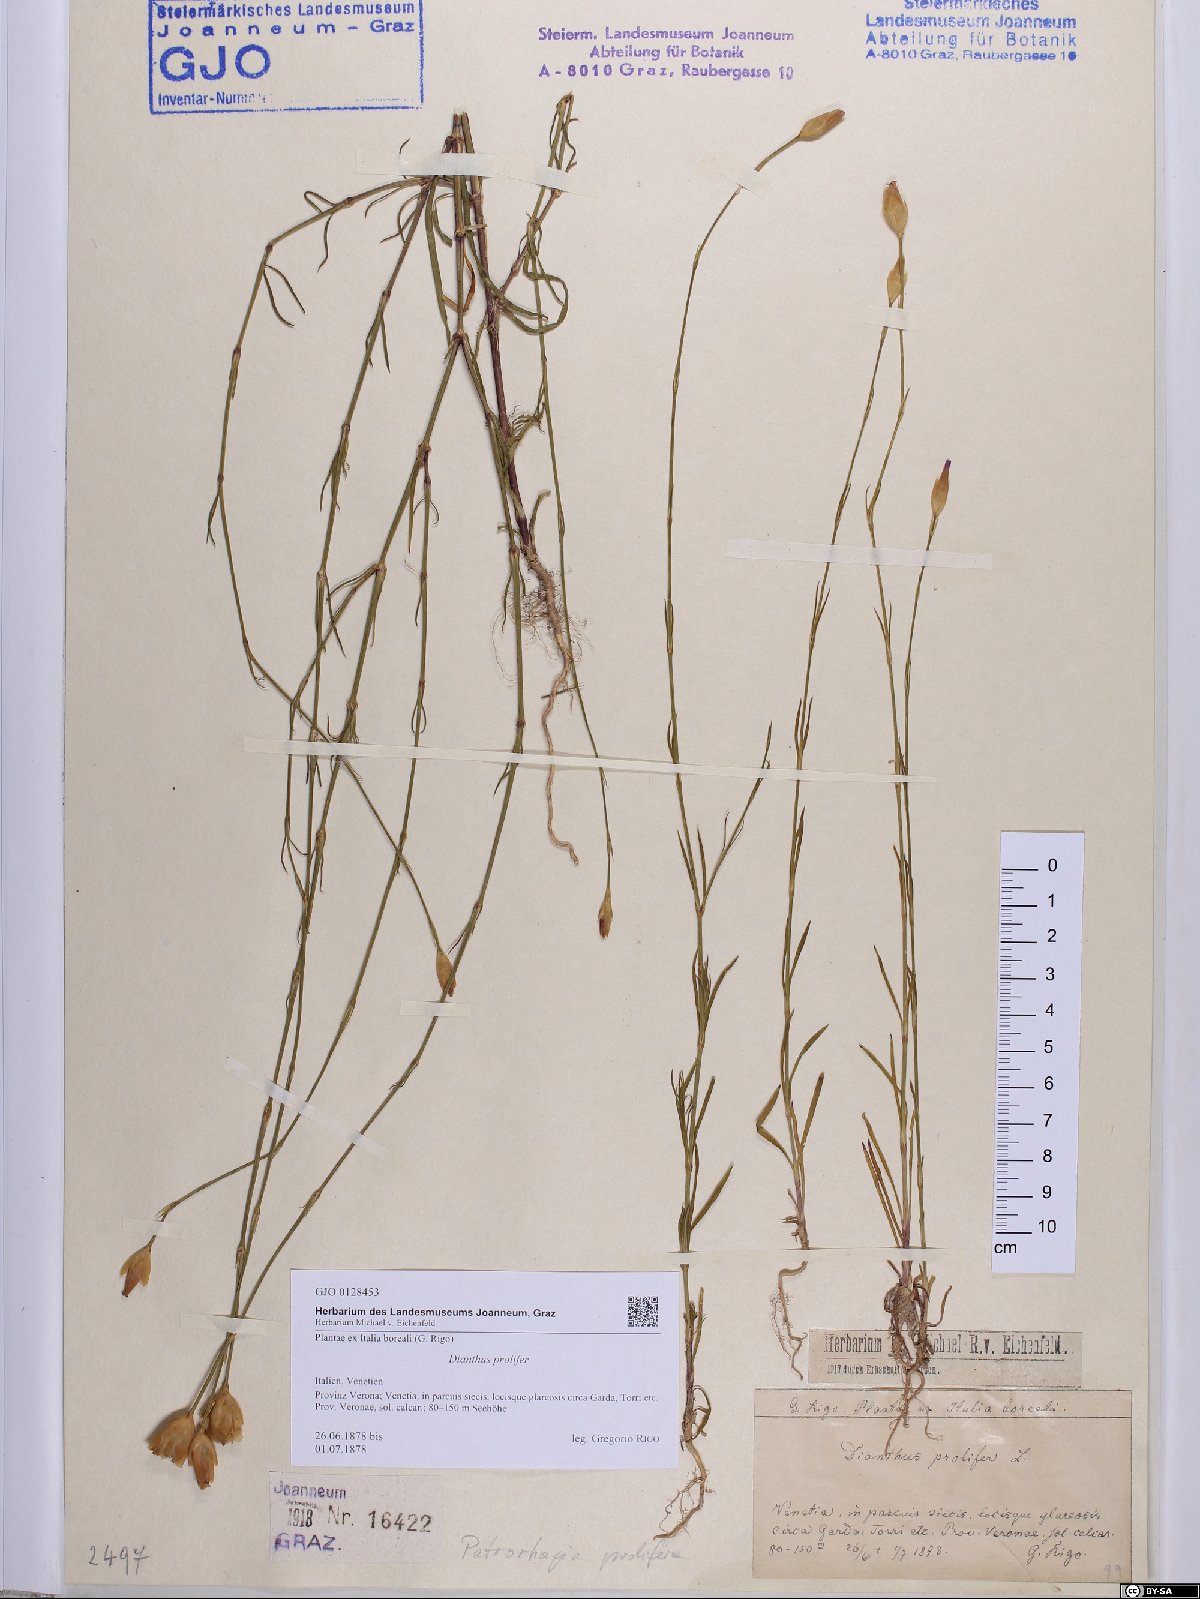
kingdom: Plantae
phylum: Tracheophyta
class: Magnoliopsida
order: Caryophyllales
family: Caryophyllaceae
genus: Petrorhagia
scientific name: Petrorhagia prolifera
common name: Proliferous pink
